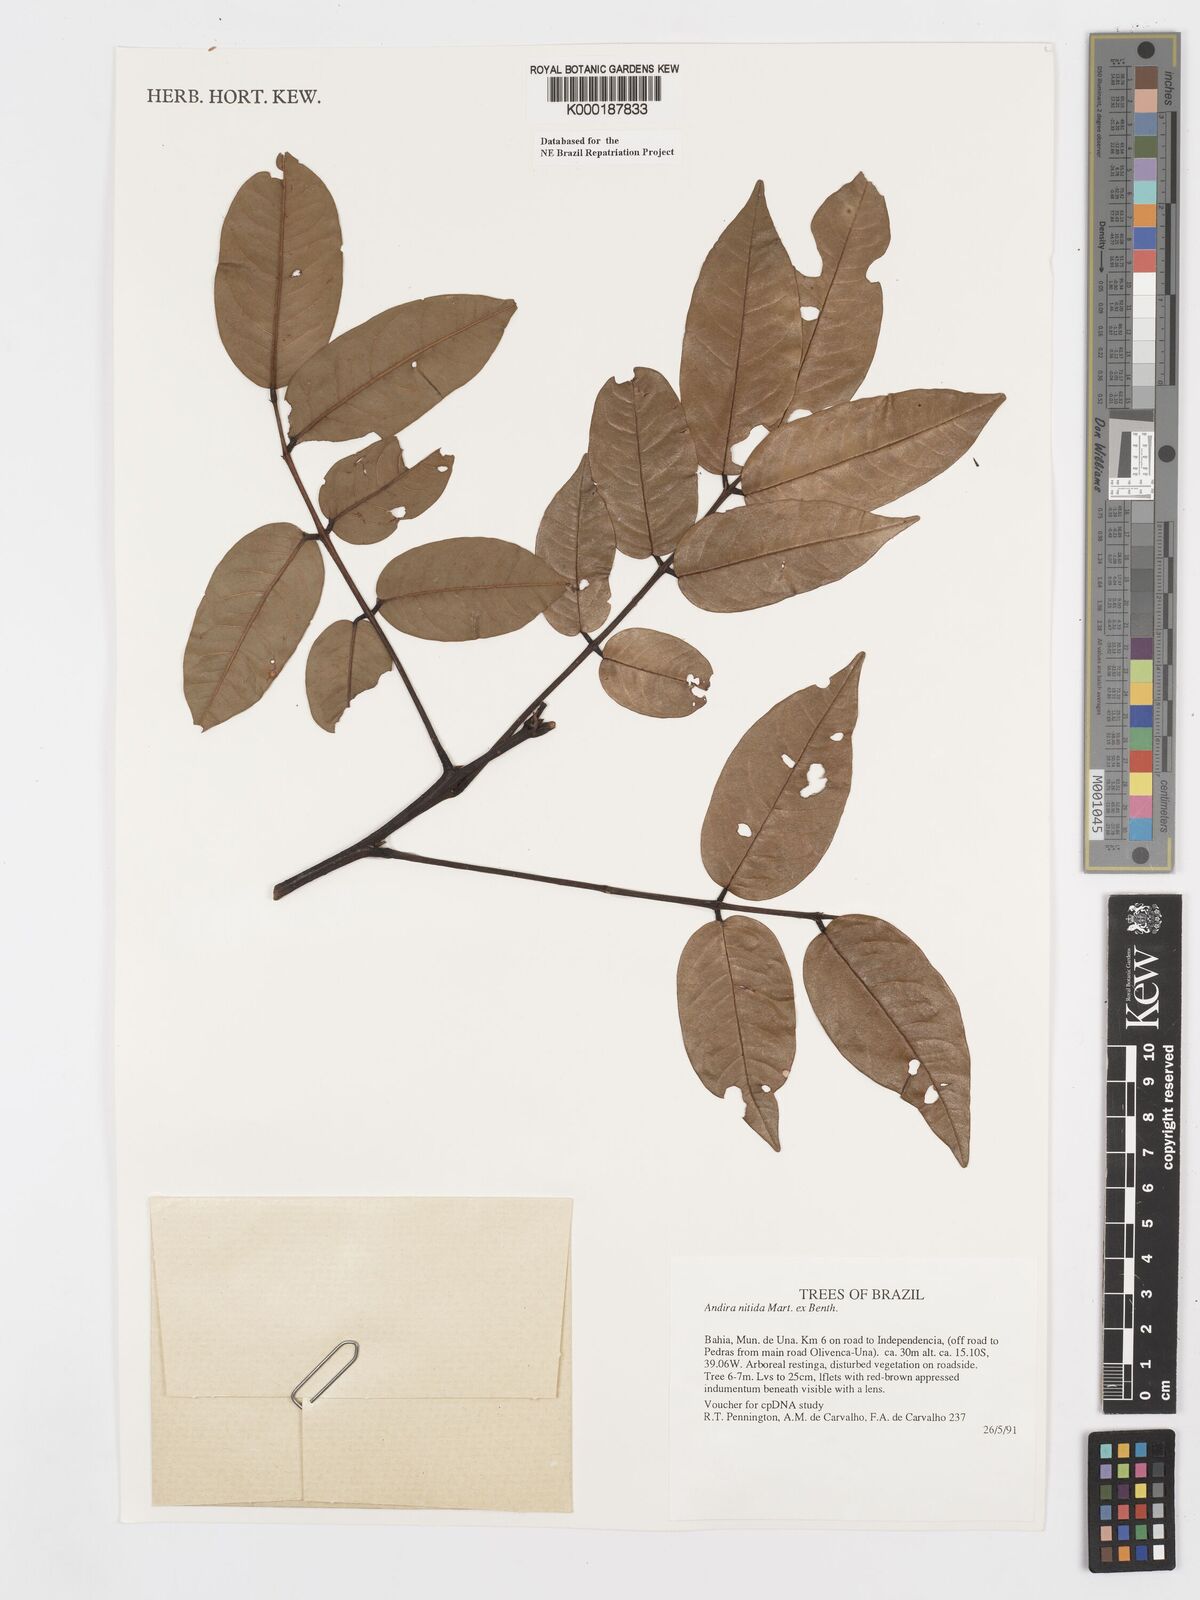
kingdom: Plantae
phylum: Tracheophyta
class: Magnoliopsida
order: Fabales
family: Fabaceae
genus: Andira
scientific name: Andira nitida
